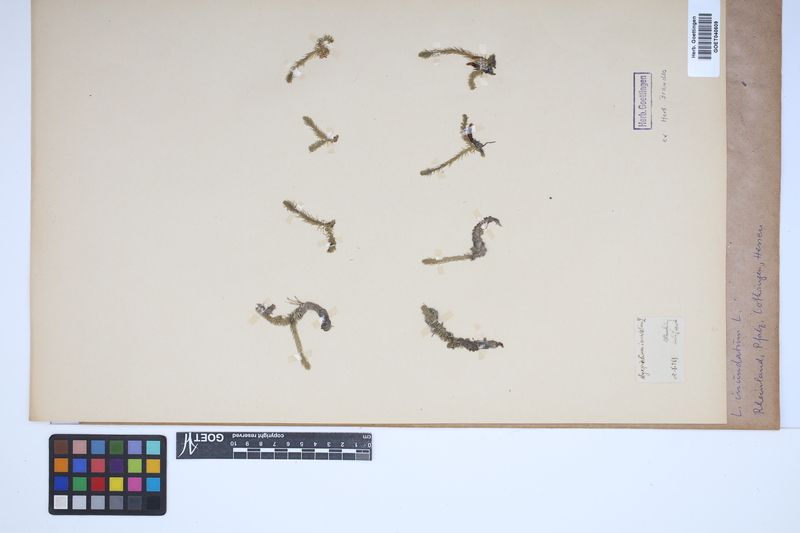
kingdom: Plantae
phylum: Tracheophyta
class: Lycopodiopsida
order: Lycopodiales
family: Lycopodiaceae
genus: Lycopodiella
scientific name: Lycopodiella inundata
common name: Marsh clubmoss
